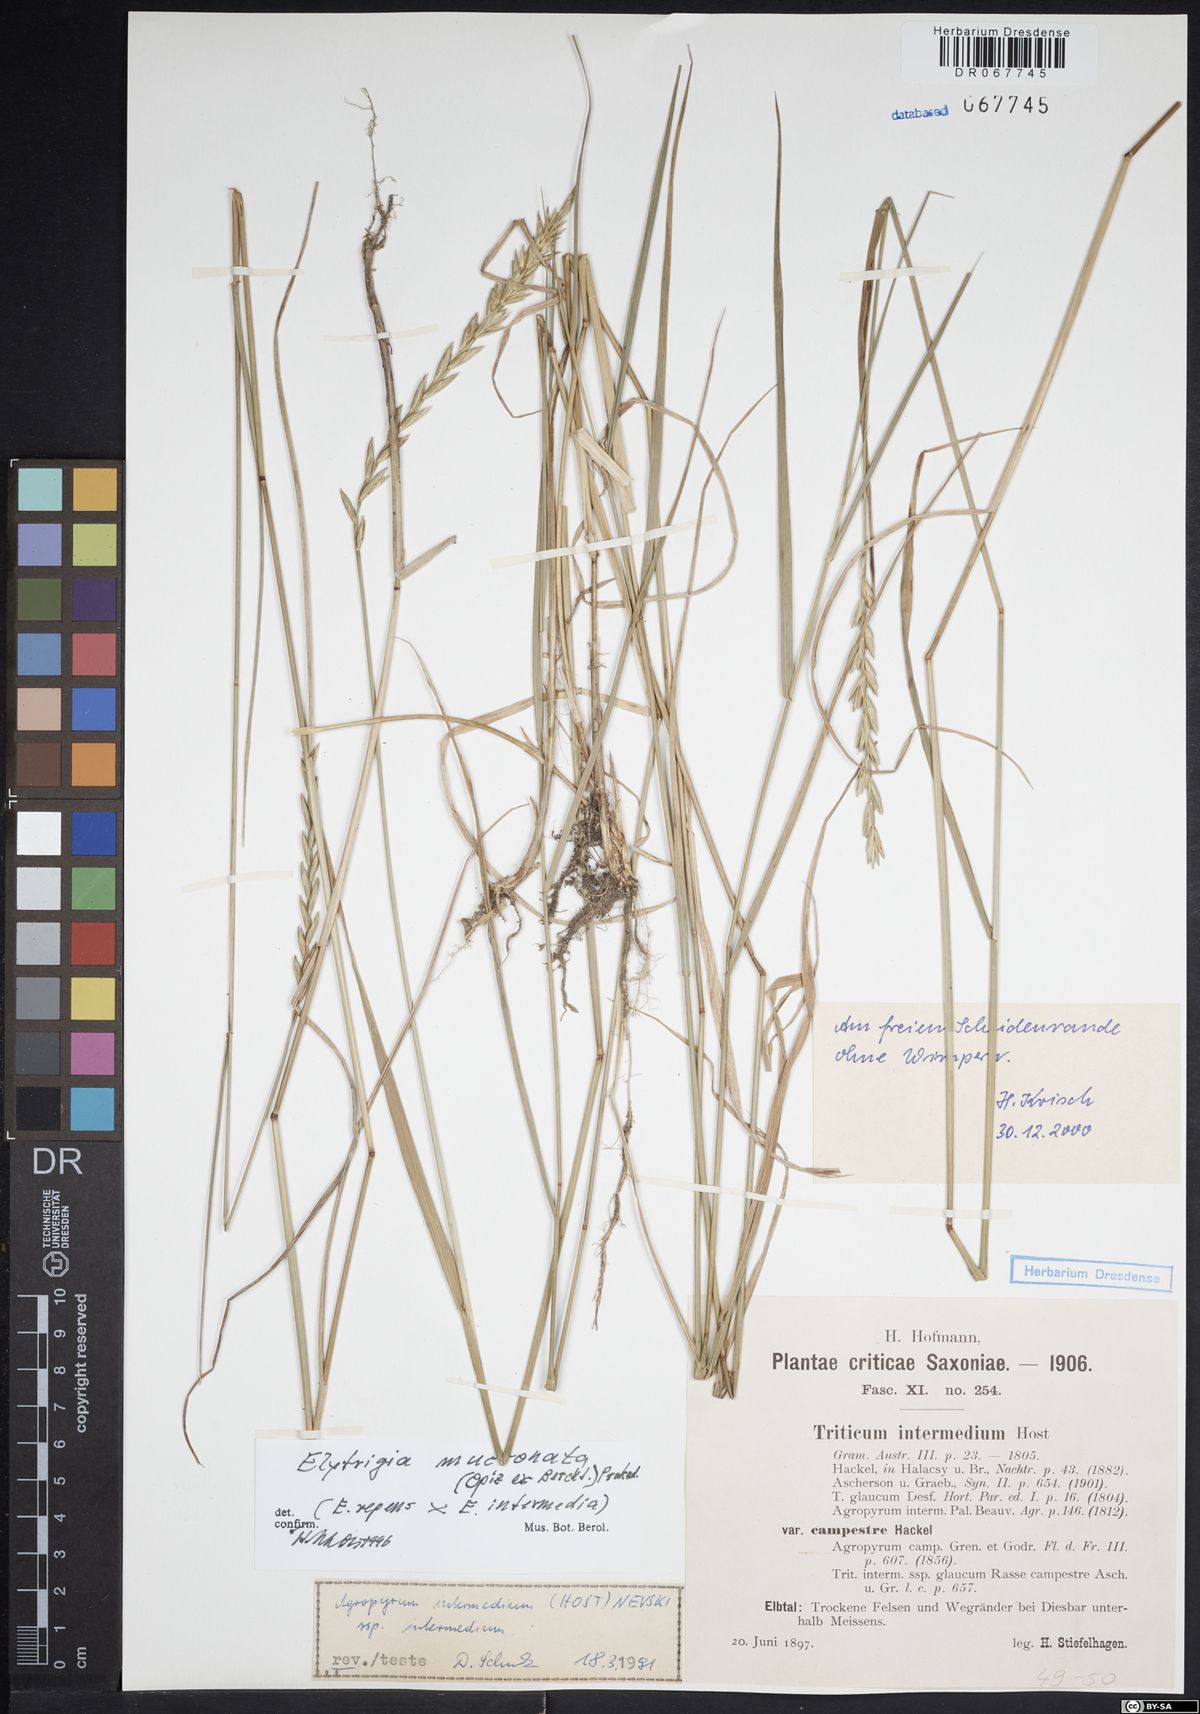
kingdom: Plantae
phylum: Tracheophyta
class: Liliopsida
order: Poales
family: Poaceae
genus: Thinoelymus
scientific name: Thinoelymus mucronatus
